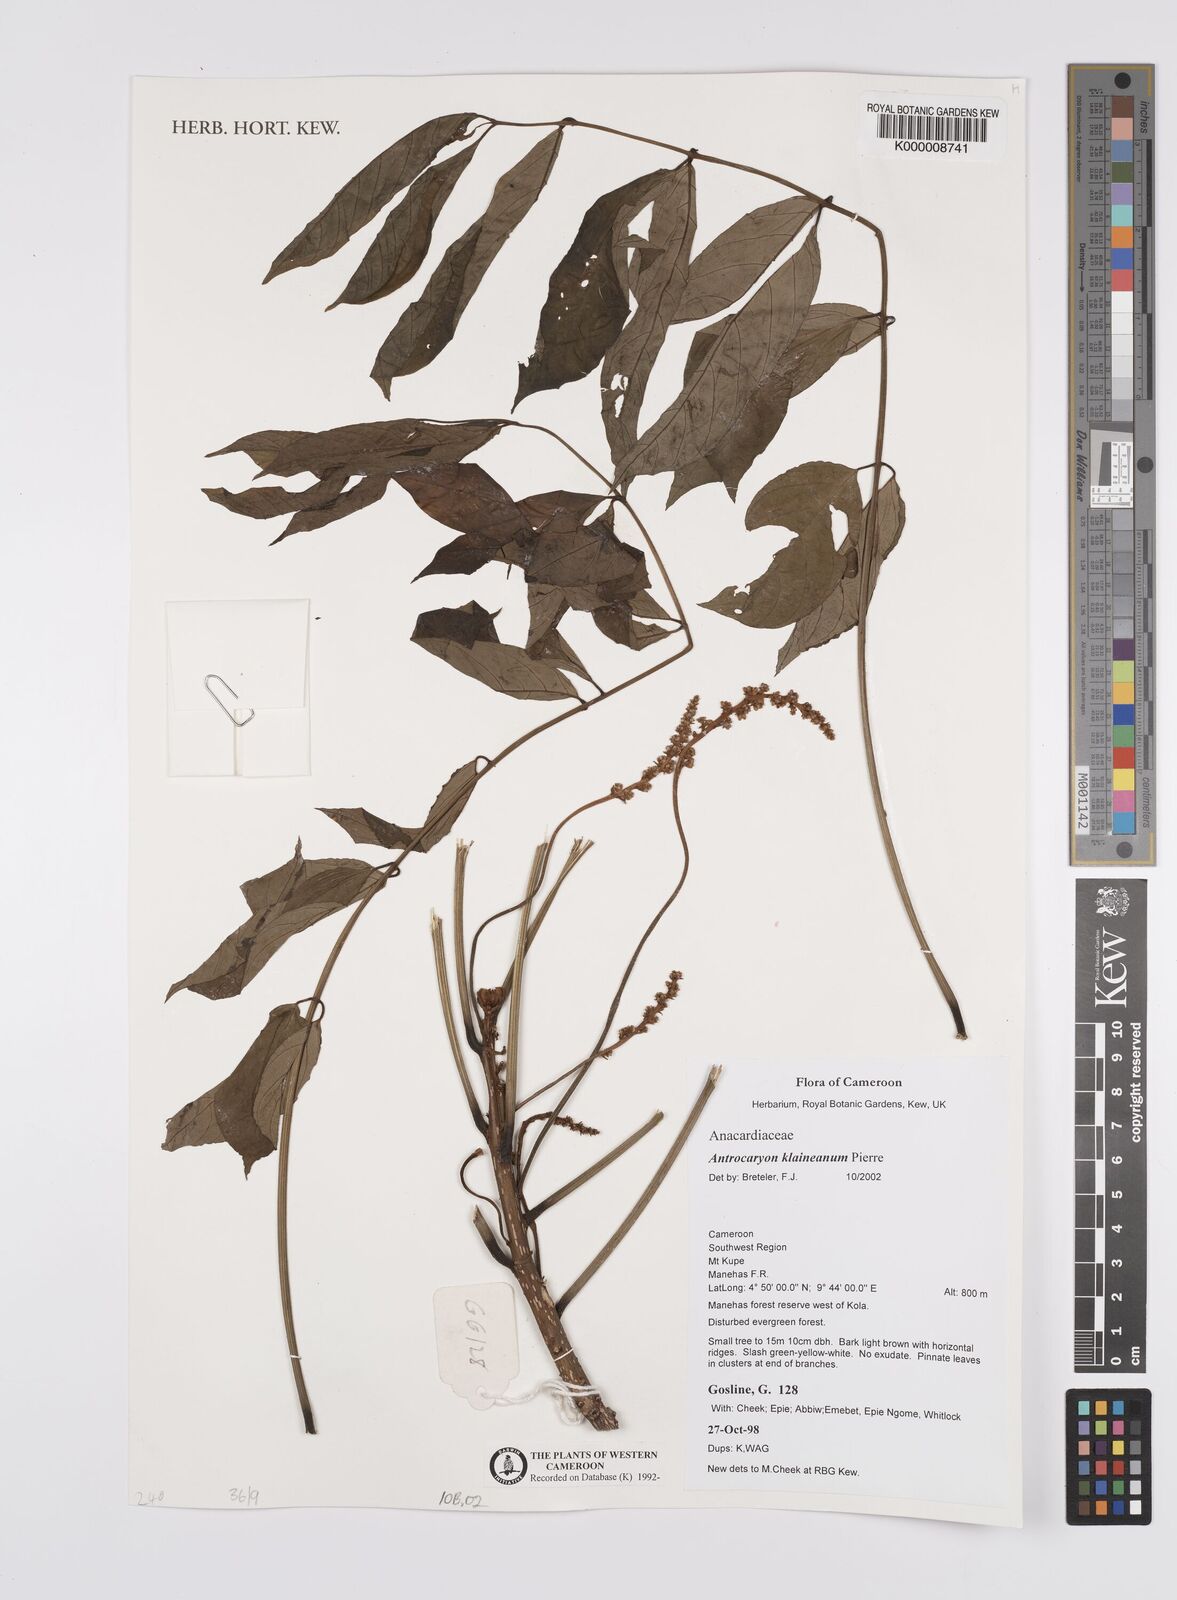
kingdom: Plantae
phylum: Tracheophyta
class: Magnoliopsida
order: Sapindales
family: Anacardiaceae
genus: Antrocaryon
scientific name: Antrocaryon klaineanum
